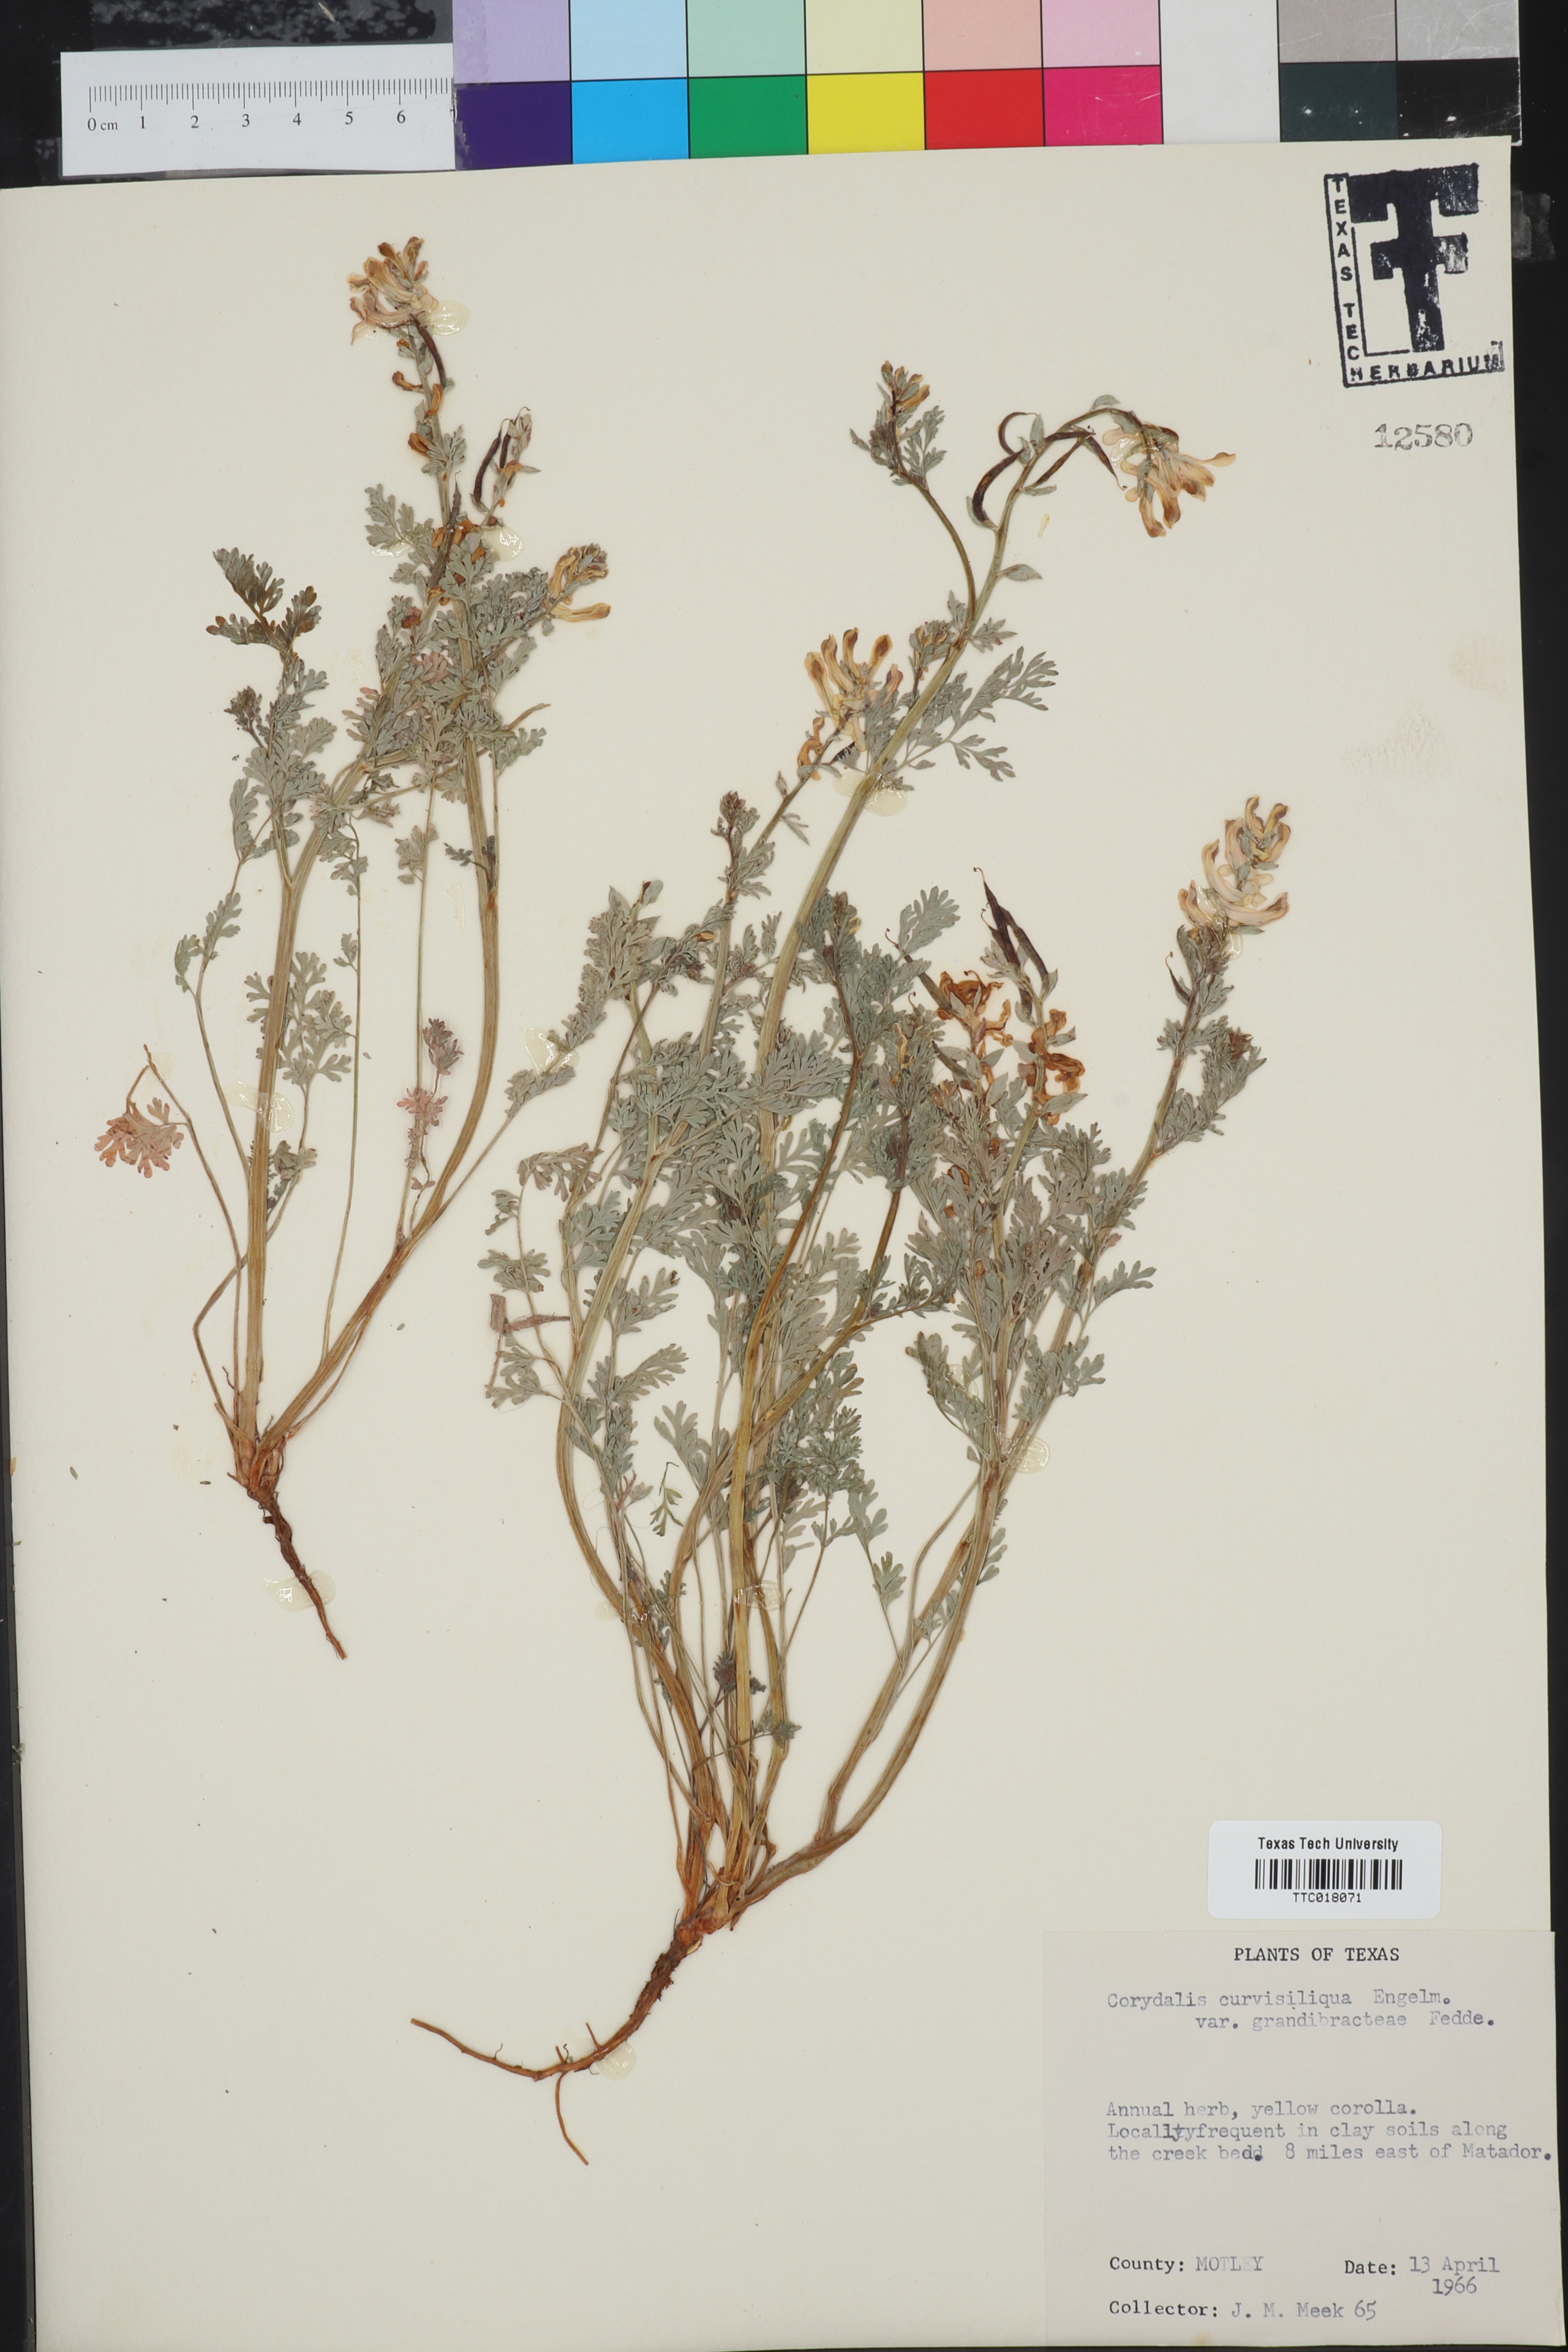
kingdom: Plantae
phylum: Tracheophyta
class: Magnoliopsida
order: Ranunculales
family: Papaveraceae
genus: Corydalis
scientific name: Corydalis curvisiliqua
